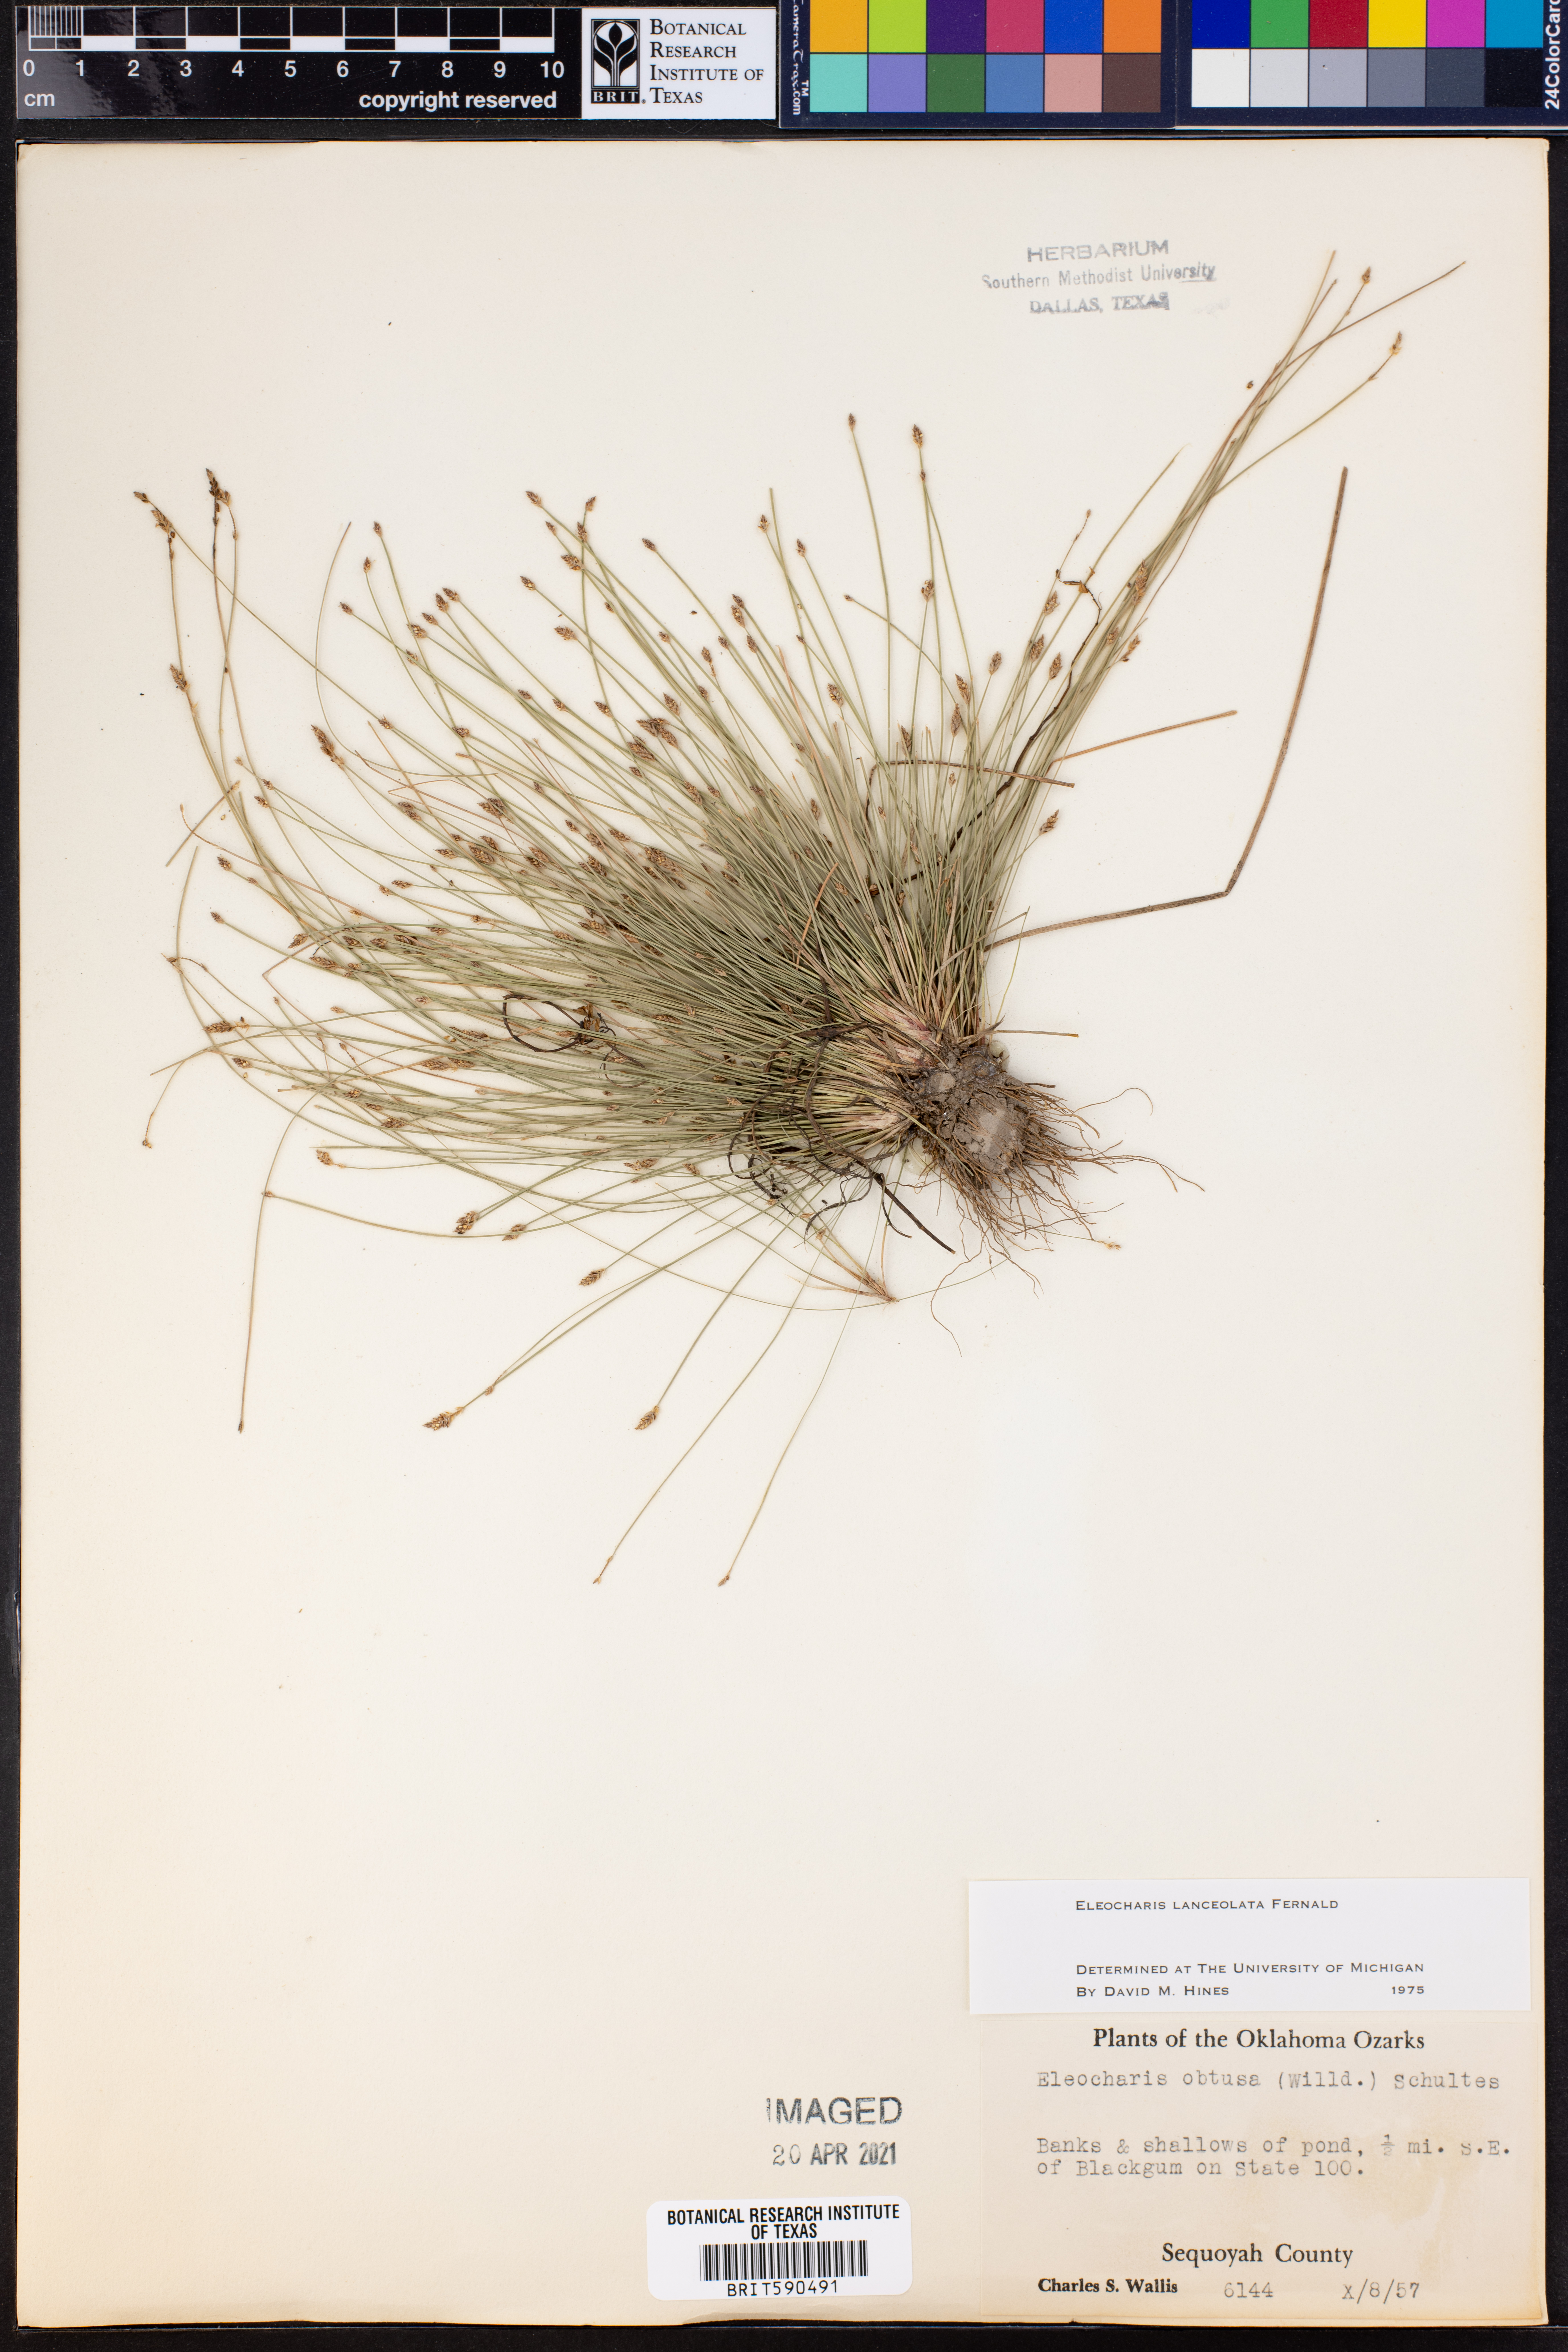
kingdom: Plantae
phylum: Tracheophyta
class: Liliopsida
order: Poales
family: Cyperaceae
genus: Eleocharis
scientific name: Eleocharis lanceolata
